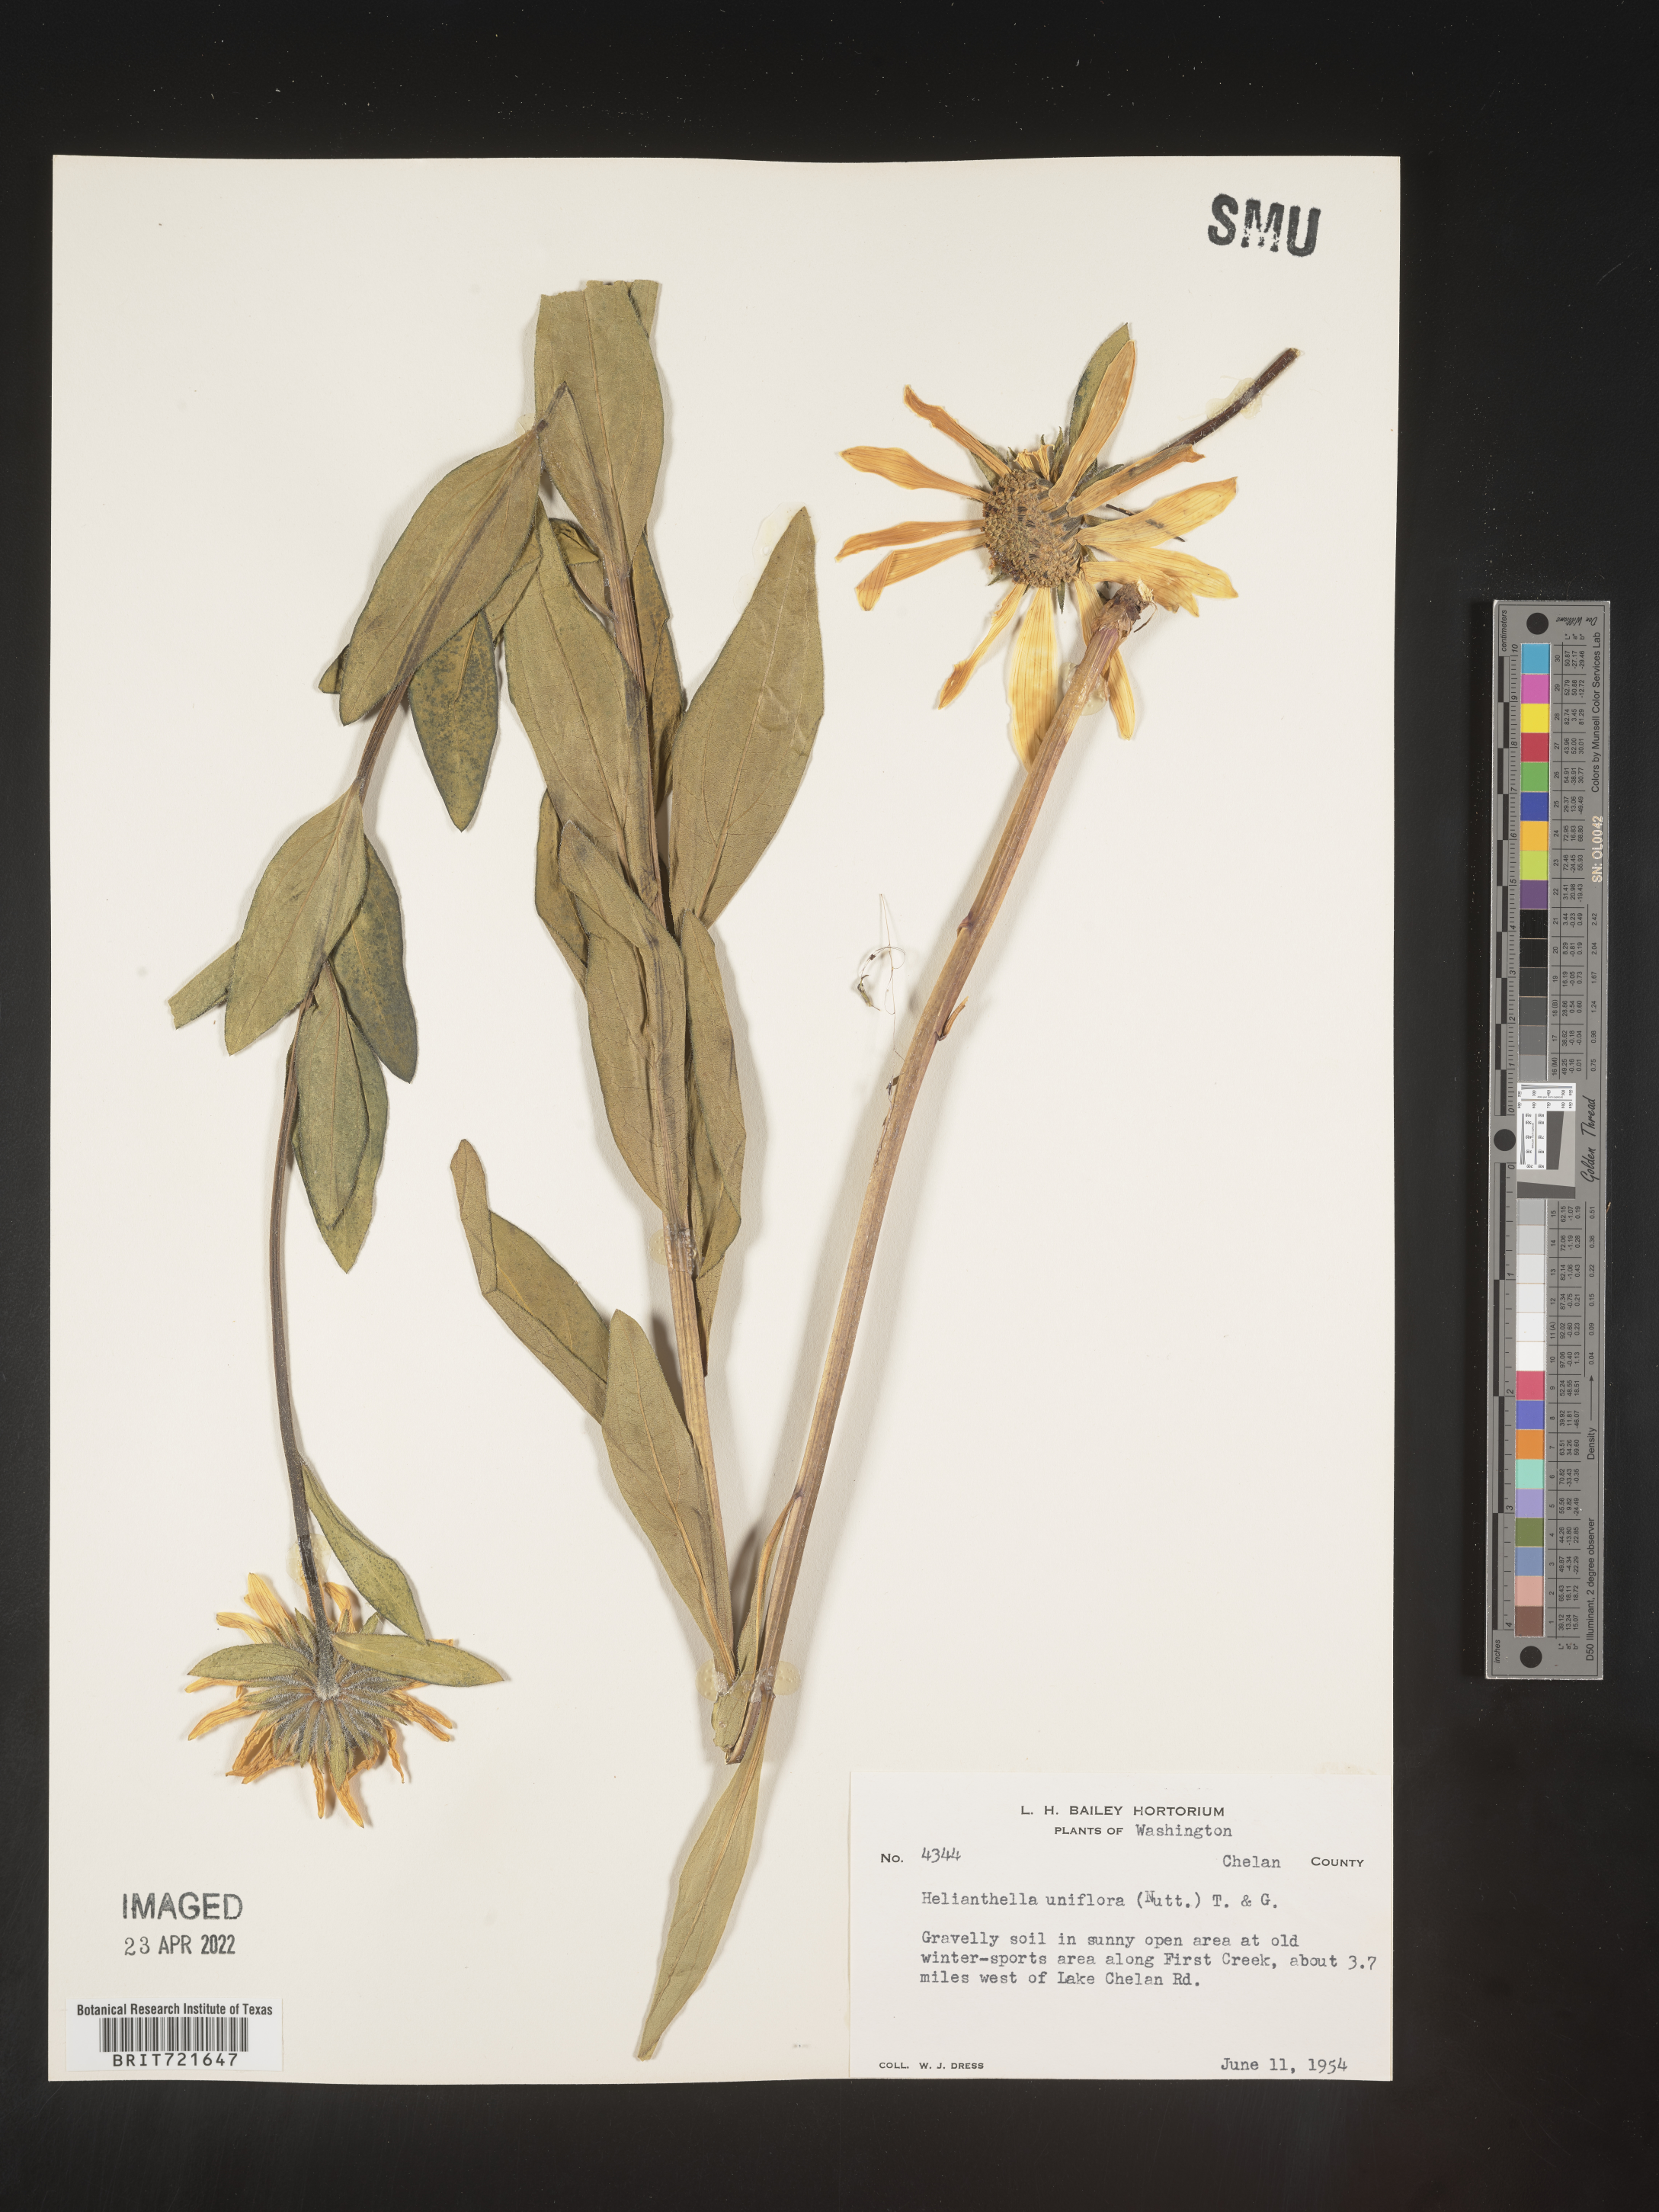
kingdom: Plantae
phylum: Tracheophyta
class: Magnoliopsida
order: Asterales
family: Asteraceae
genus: Helianthella
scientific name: Helianthella
